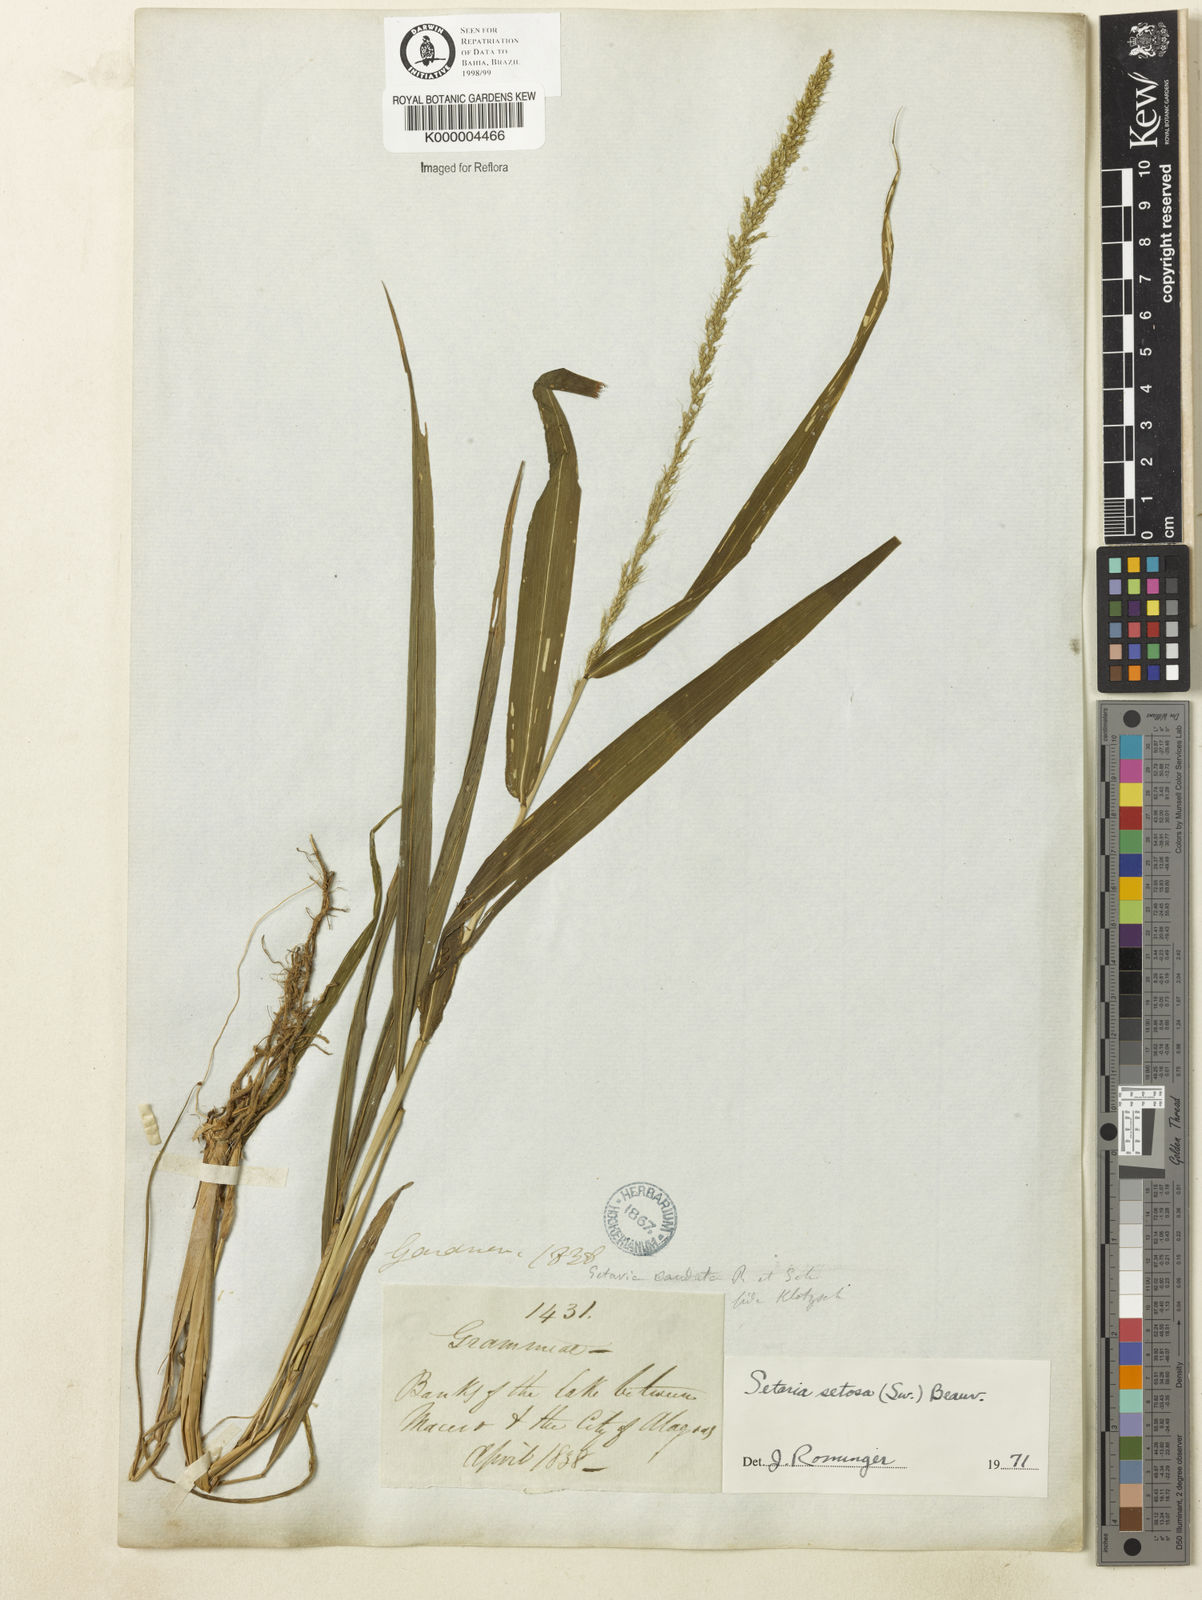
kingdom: Plantae
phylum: Tracheophyta
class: Liliopsida
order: Poales
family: Poaceae
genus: Setaria
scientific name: Setaria setosa
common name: West indies bristle grass
